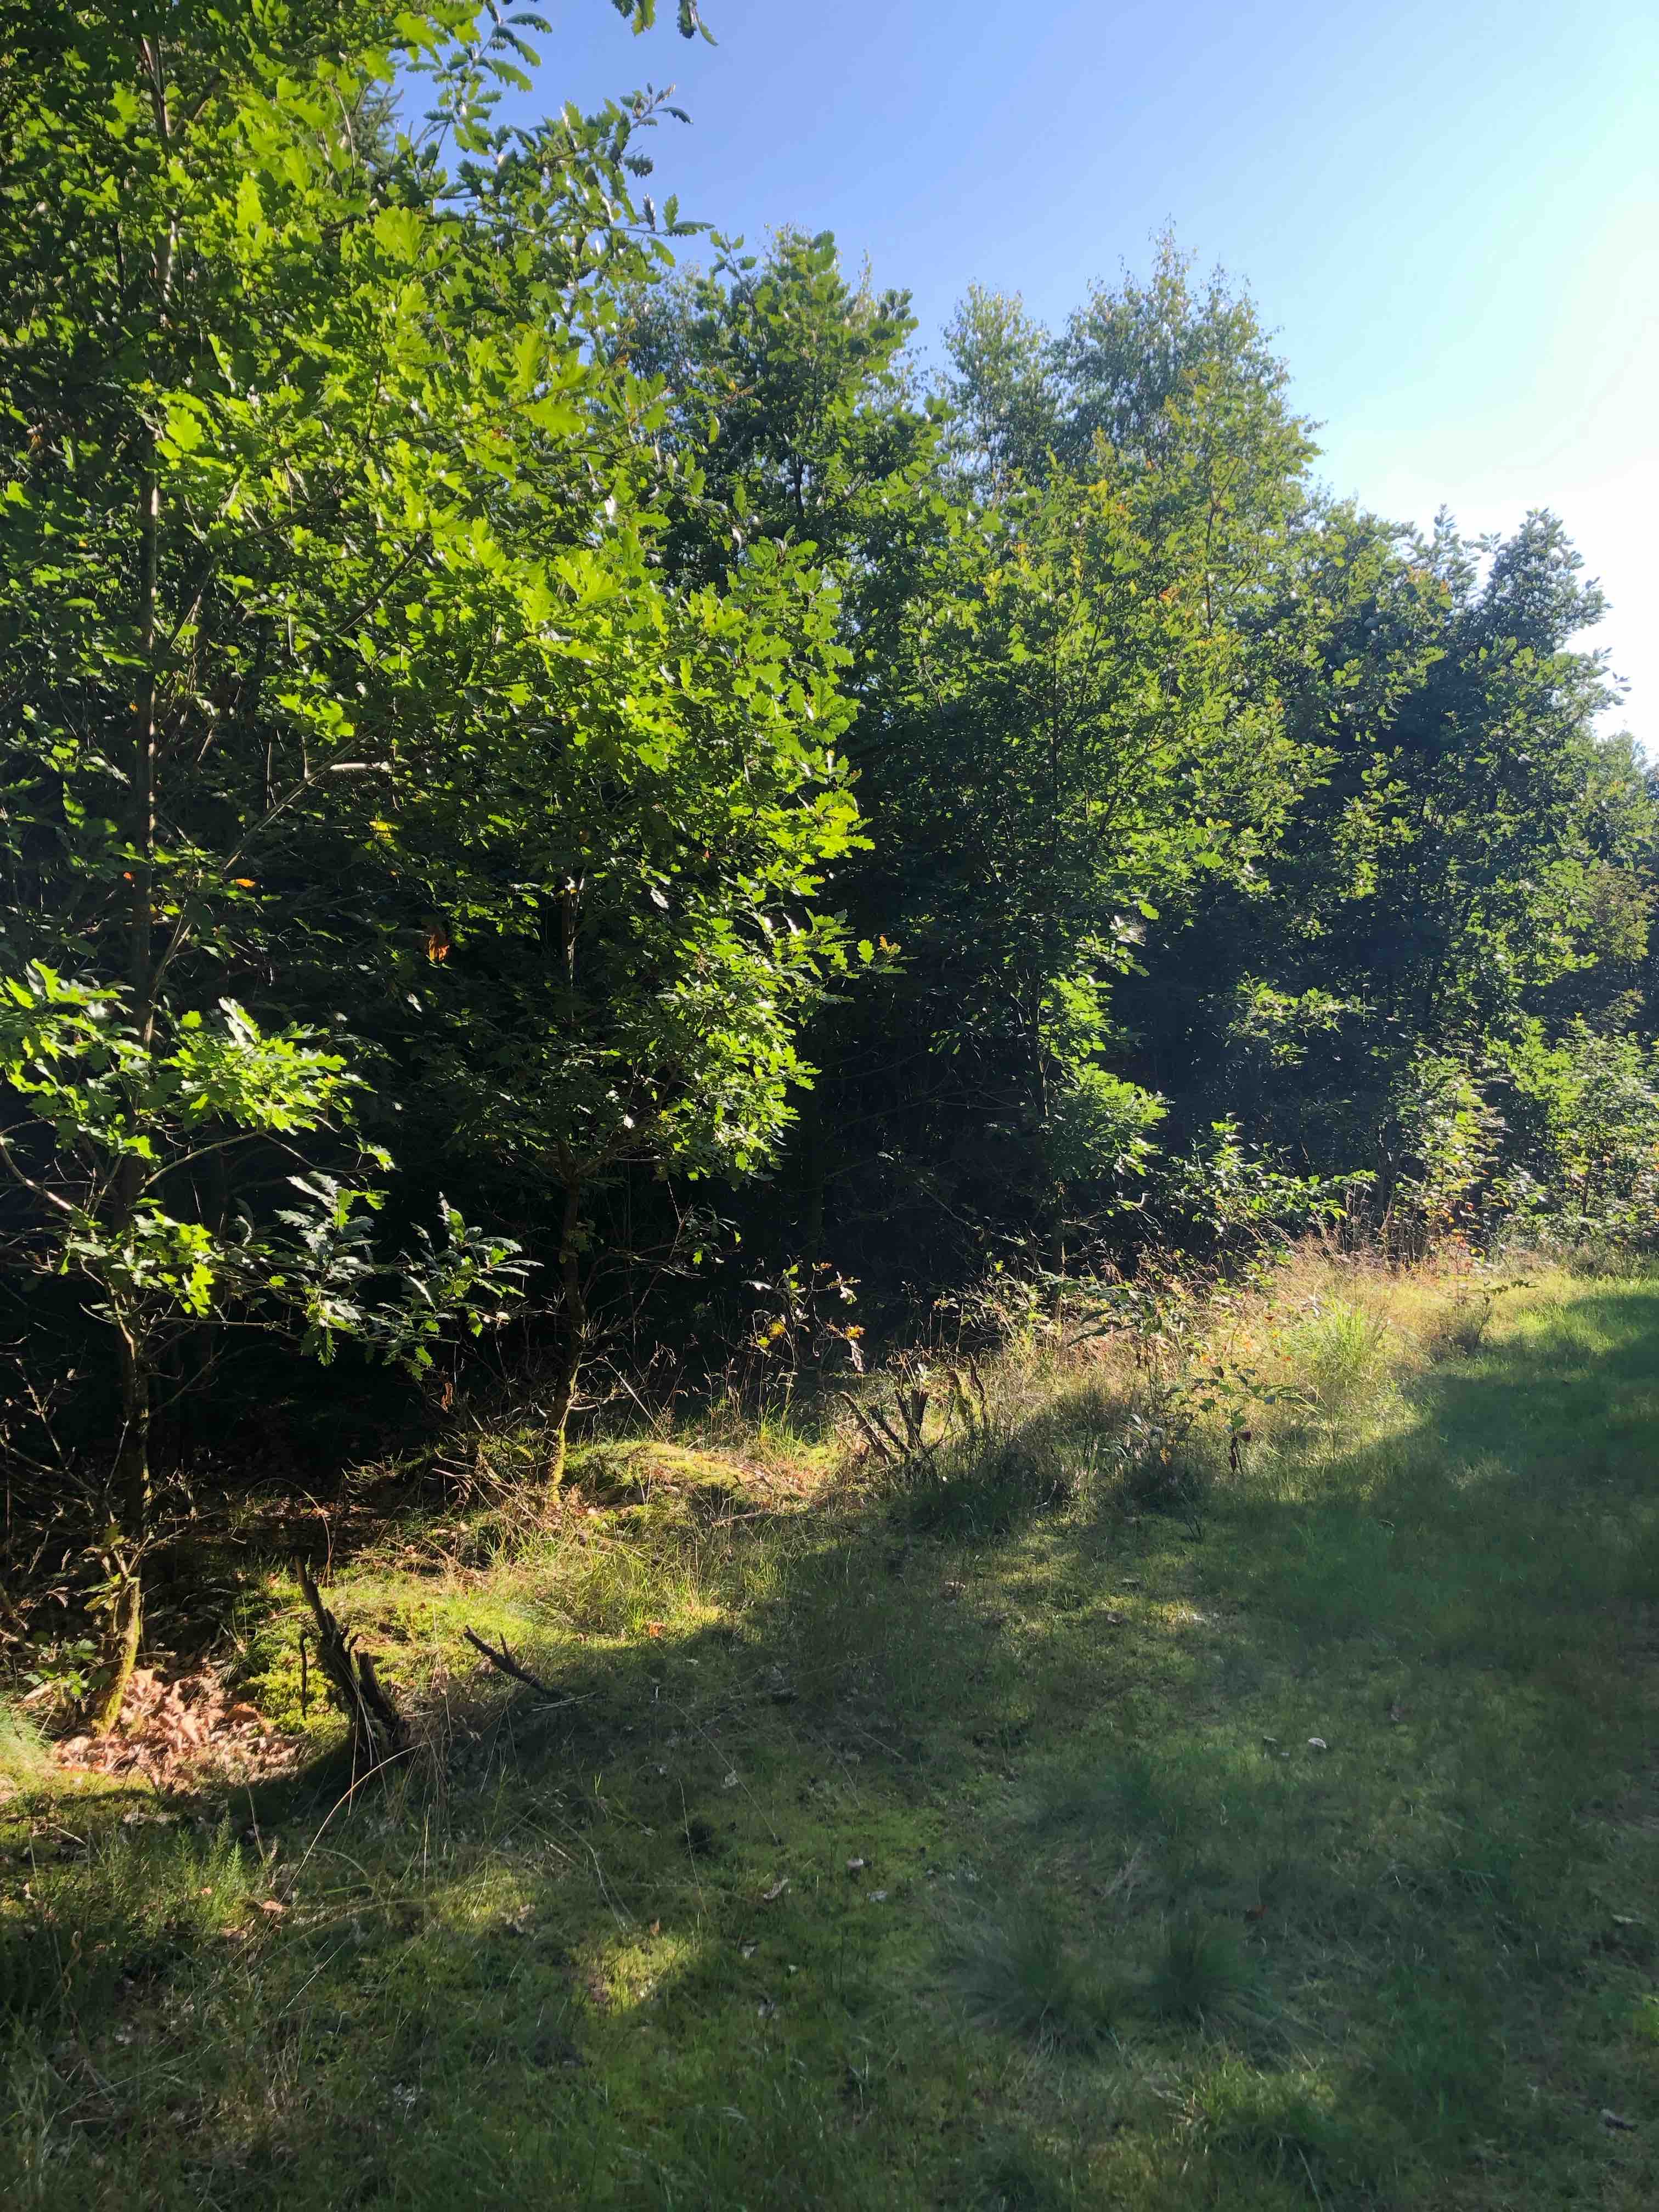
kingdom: Fungi
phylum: Basidiomycota
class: Agaricomycetes
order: Russulales
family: Russulaceae
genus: Russula
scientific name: Russula betularum
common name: bleg gift-skørhat
